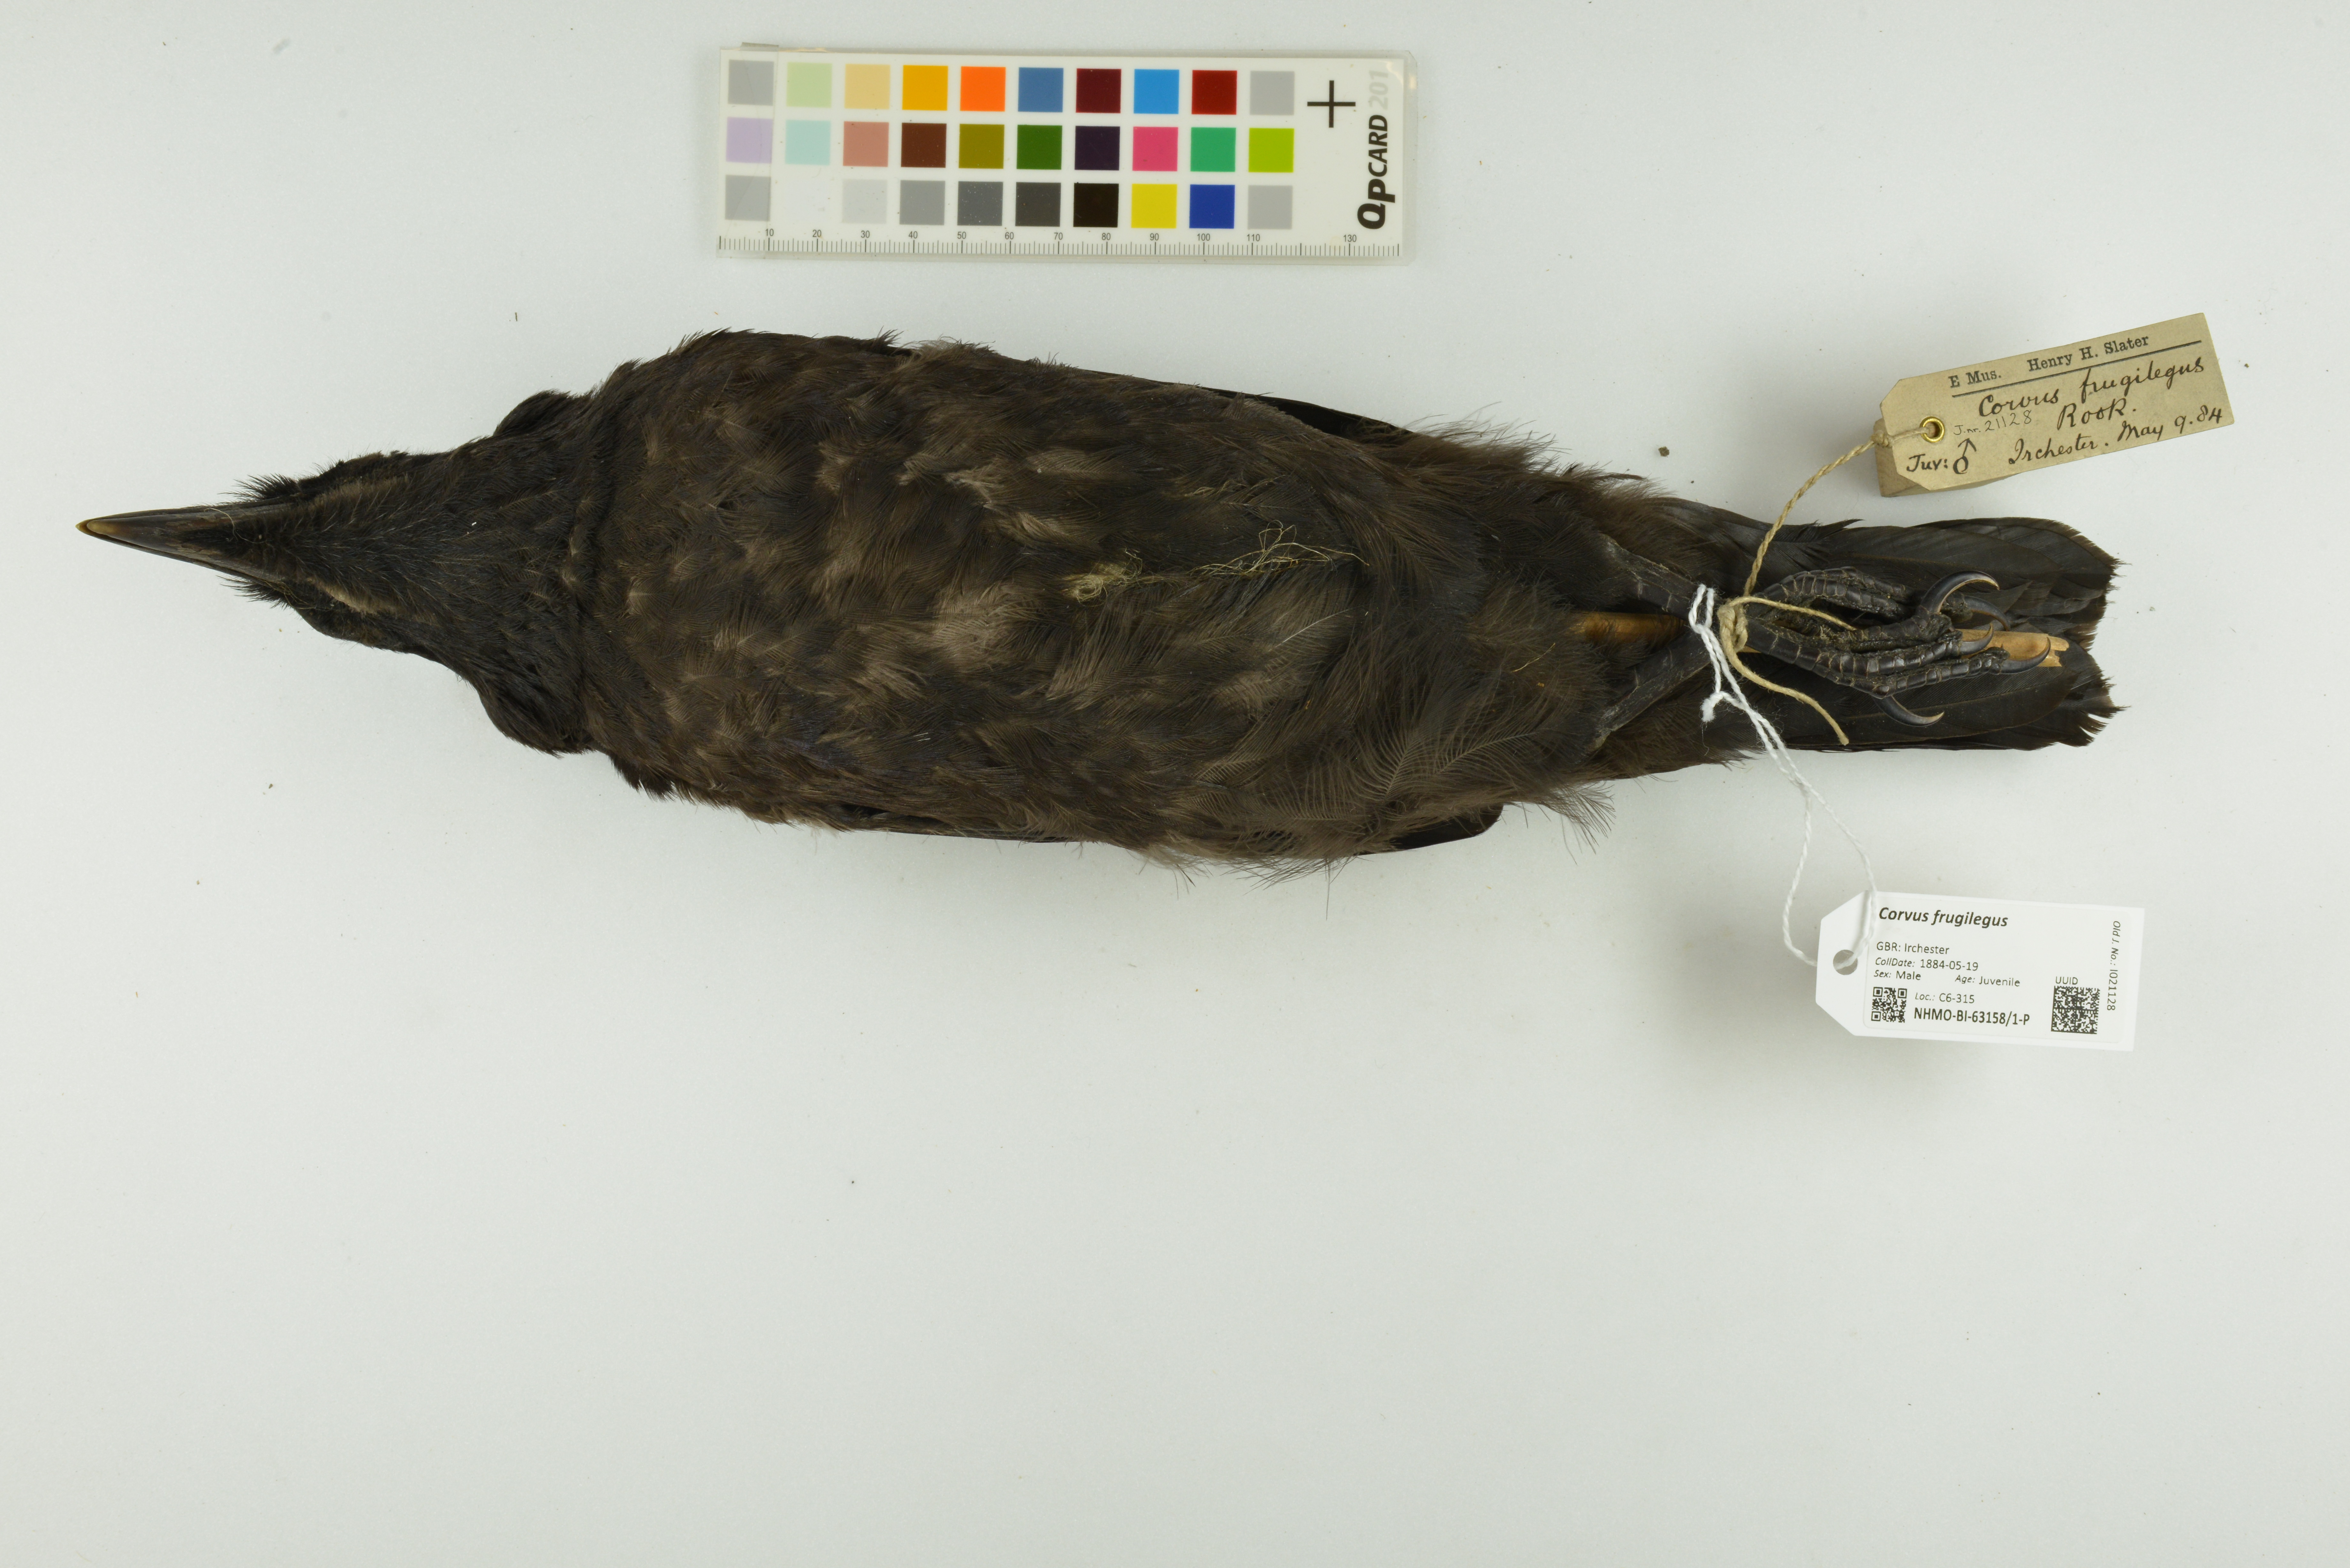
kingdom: Animalia
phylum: Chordata
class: Aves
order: Passeriformes
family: Corvidae
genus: Corvus
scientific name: Corvus frugilegus
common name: Rook
